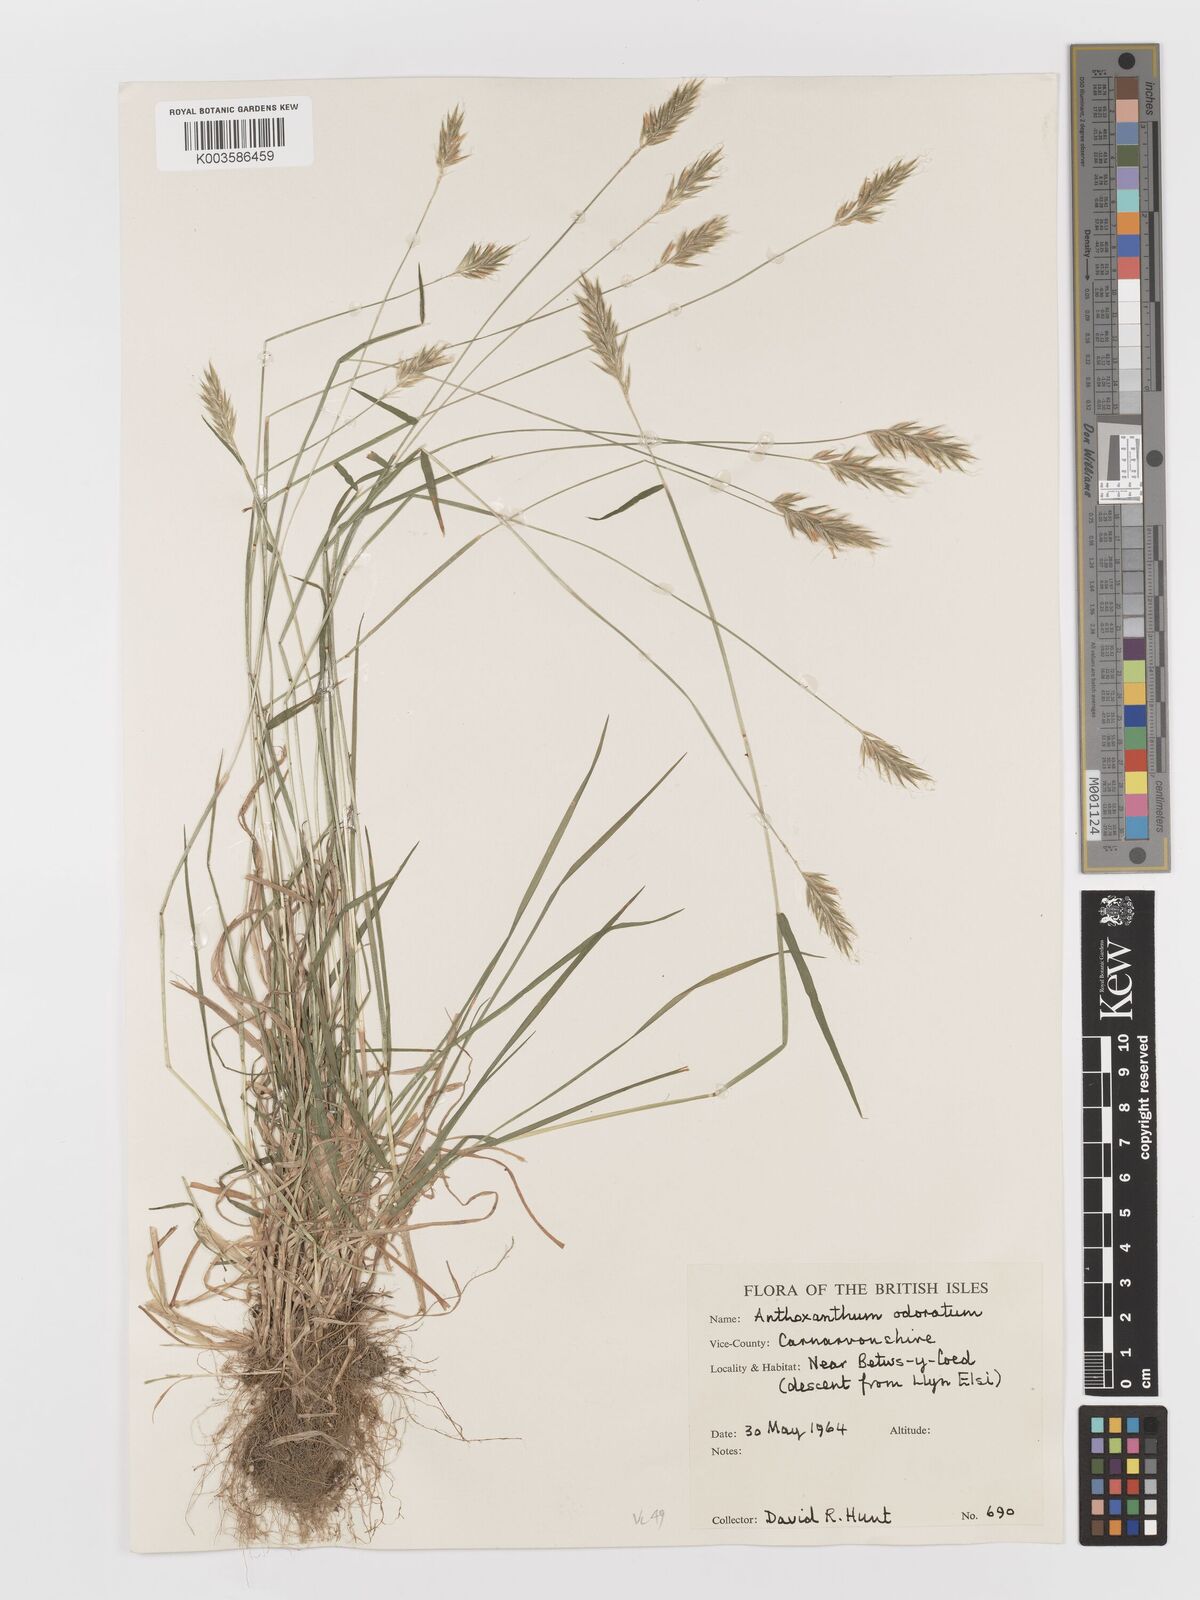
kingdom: Plantae
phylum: Tracheophyta
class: Liliopsida
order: Poales
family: Poaceae
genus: Anthoxanthum
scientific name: Anthoxanthum odoratum
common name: Sweet vernalgrass
